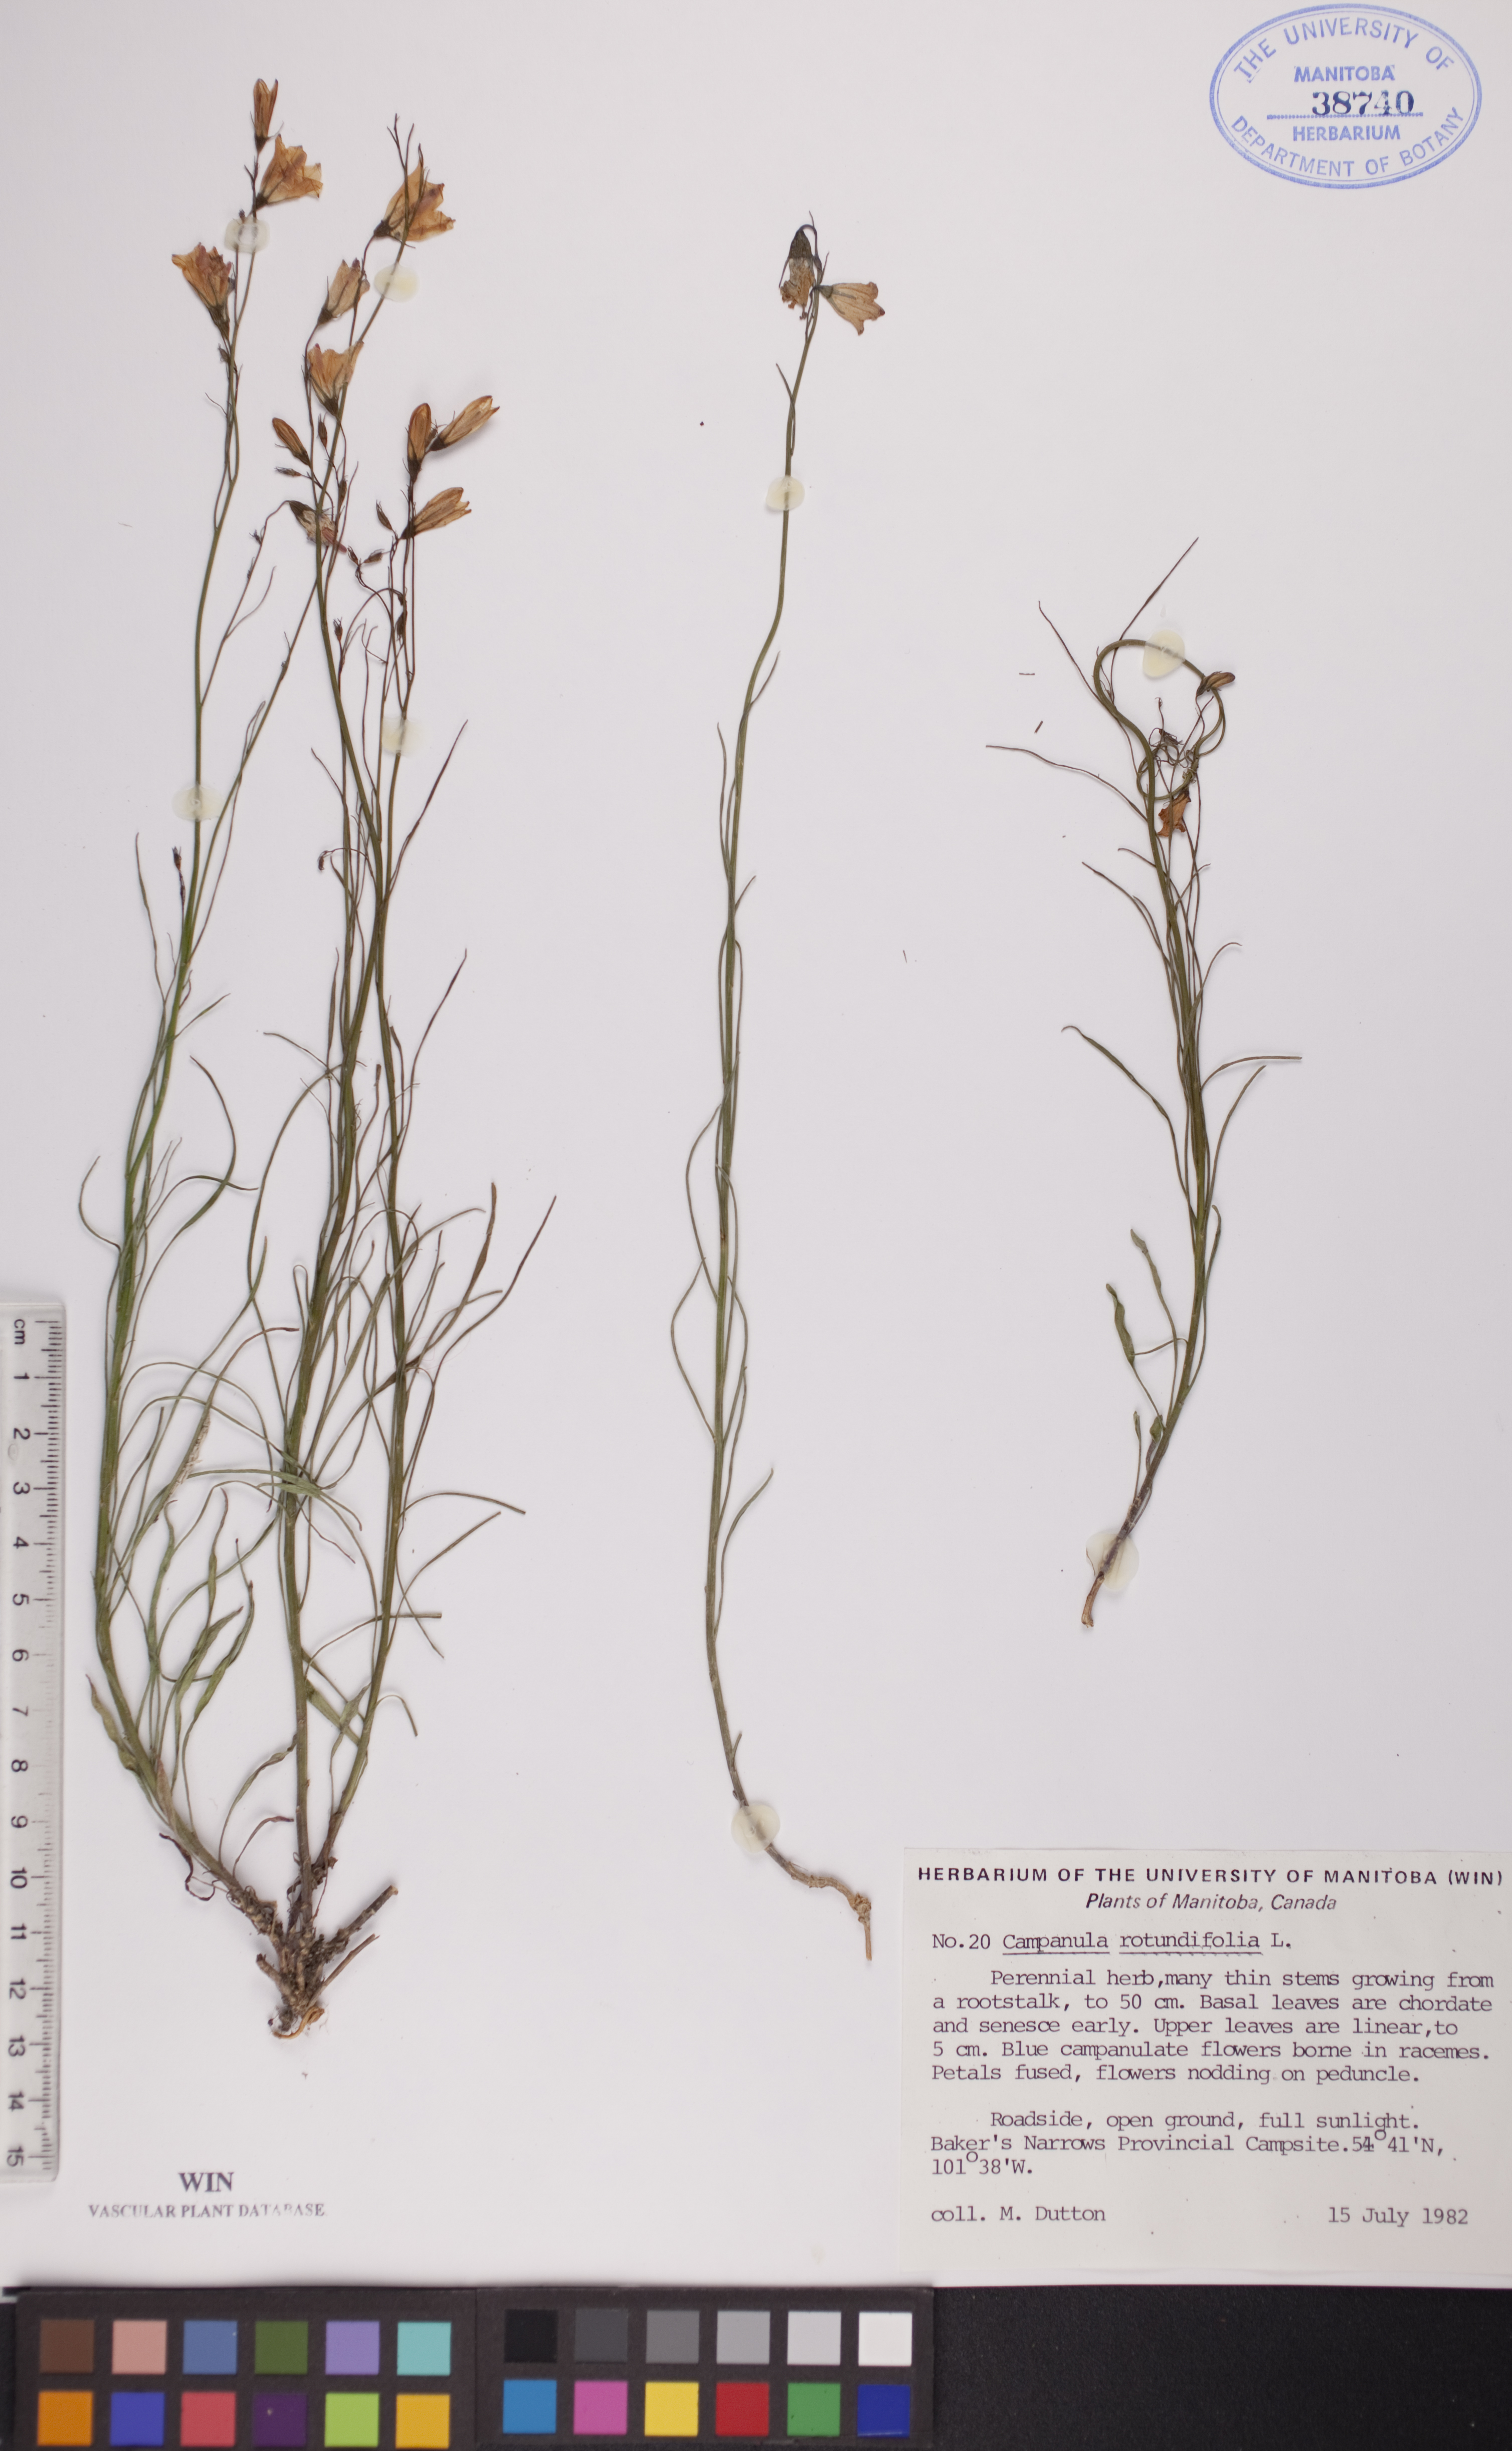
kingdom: Plantae
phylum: Tracheophyta
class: Magnoliopsida
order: Asterales
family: Campanulaceae
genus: Campanula
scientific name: Campanula rotundifolia
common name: Harebell
